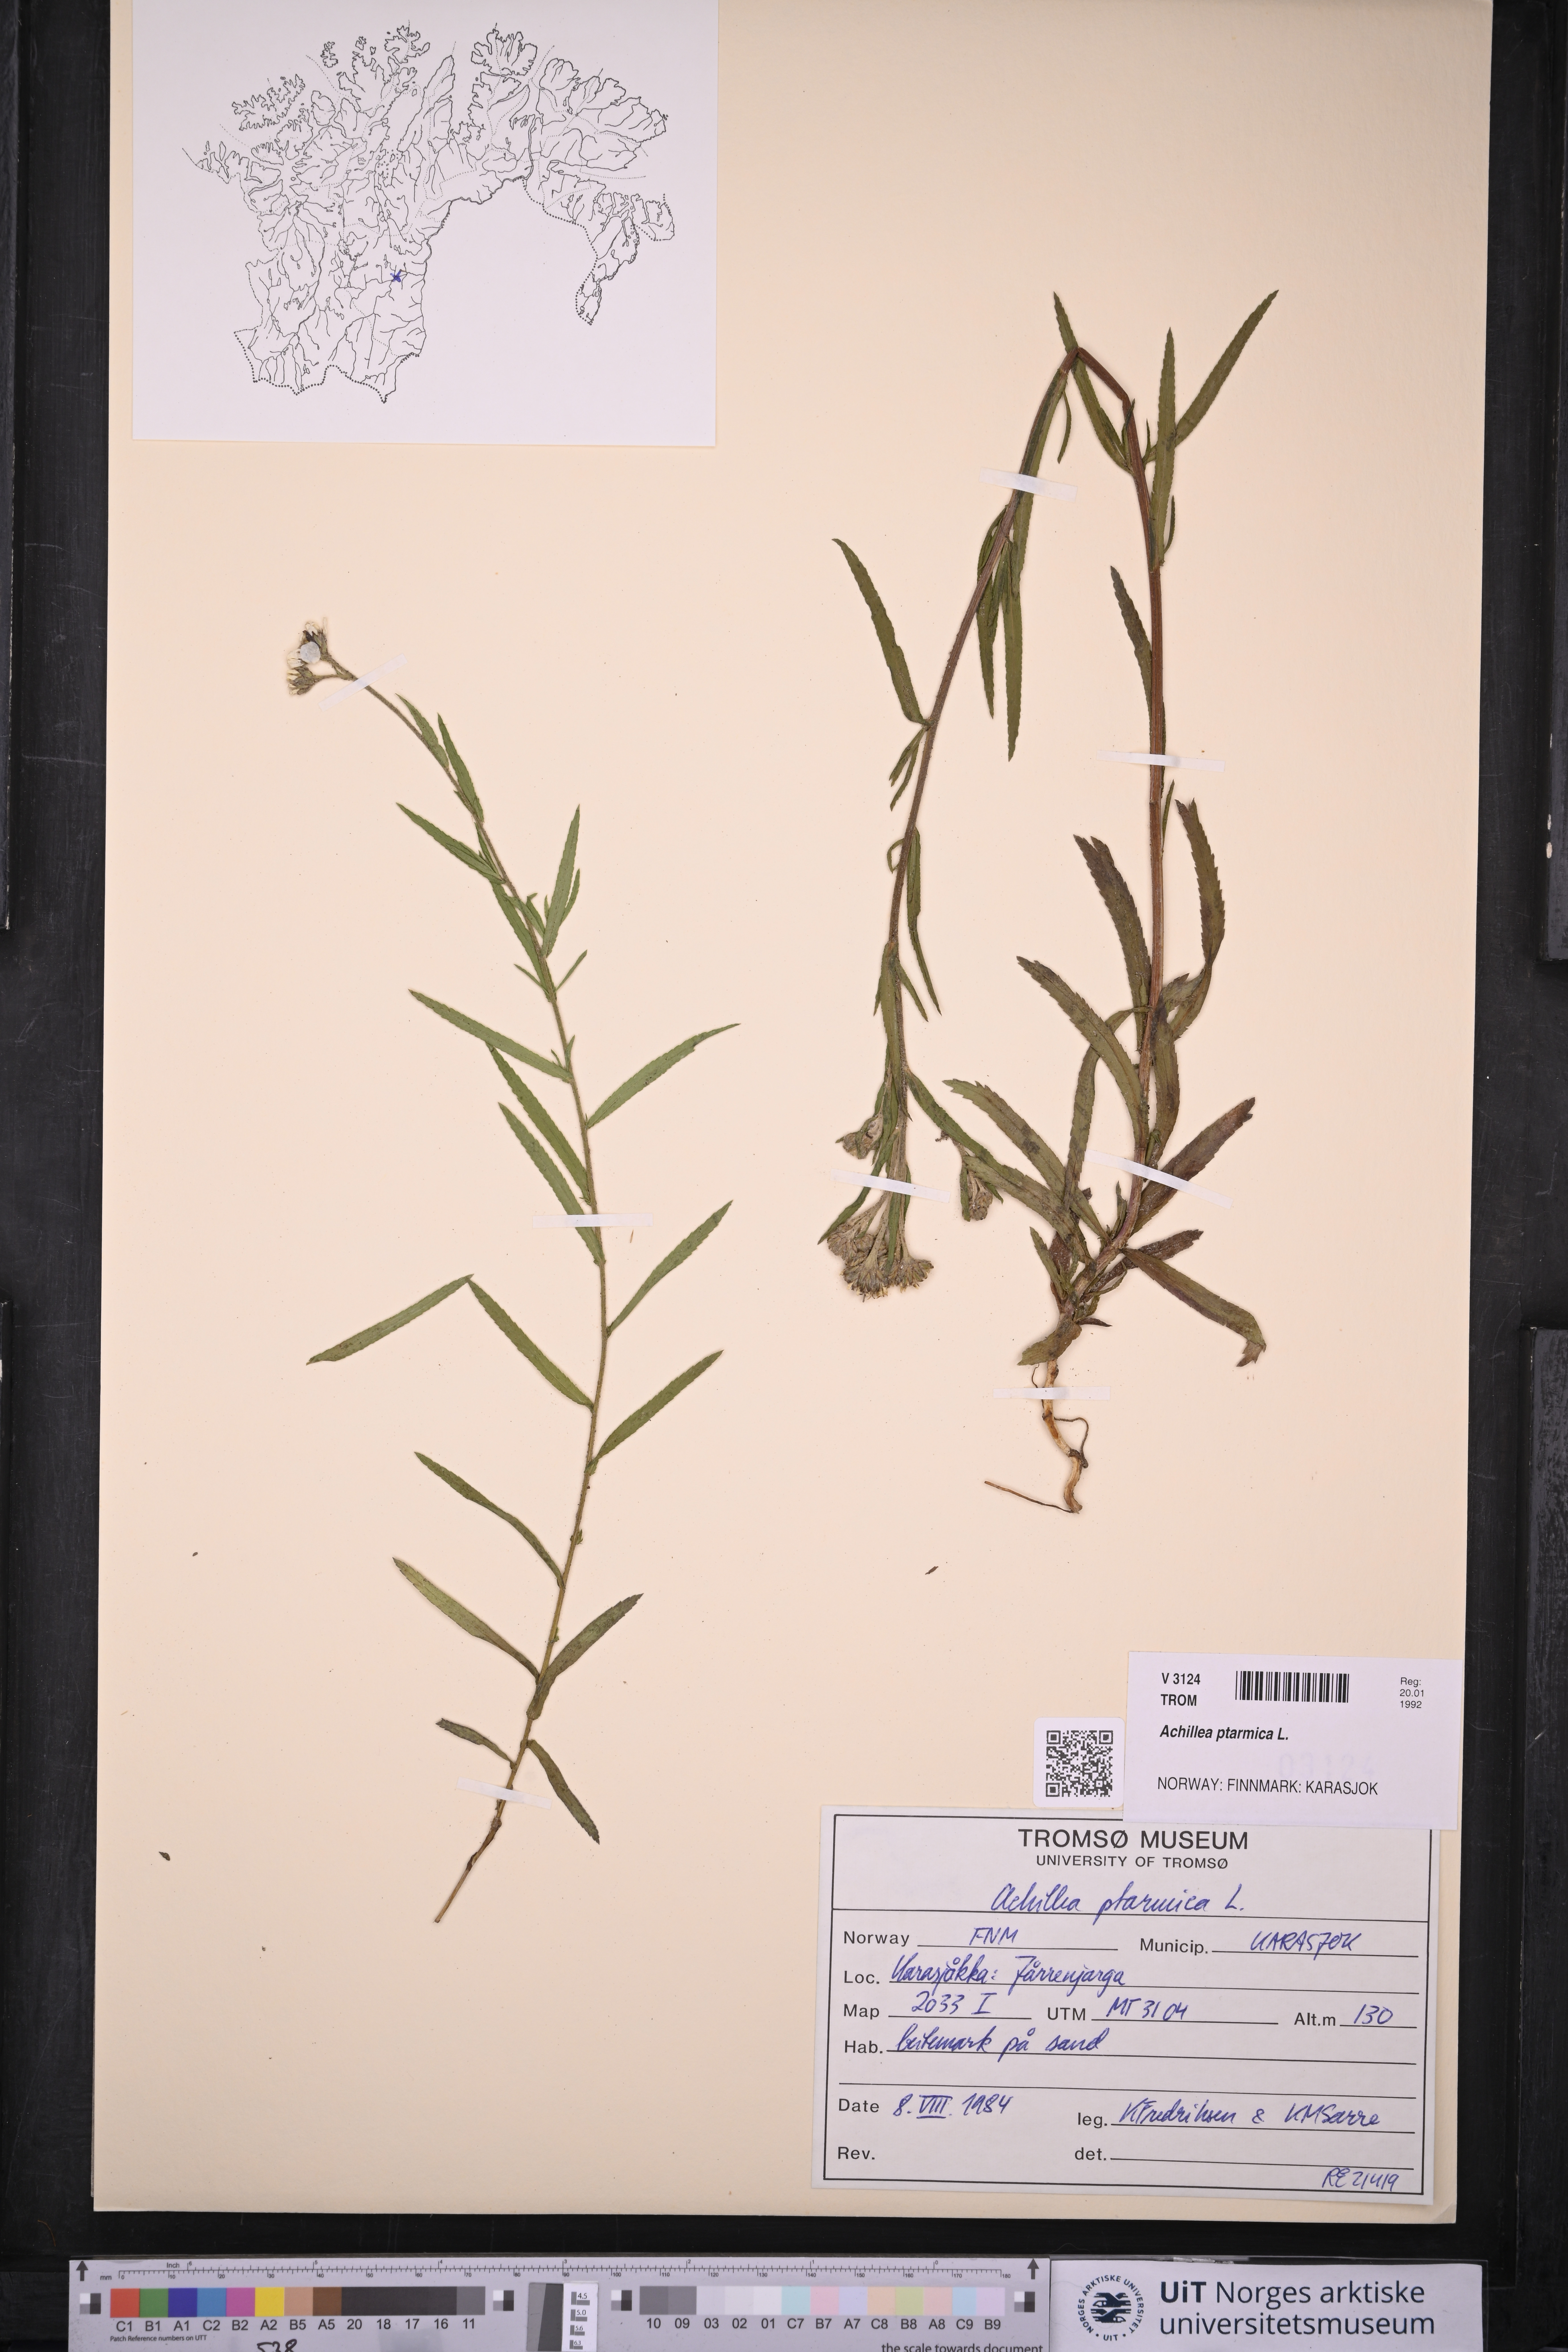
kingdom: Plantae
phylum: Tracheophyta
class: Magnoliopsida
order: Asterales
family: Asteraceae
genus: Achillea
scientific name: Achillea ptarmica
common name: Sneezeweed
